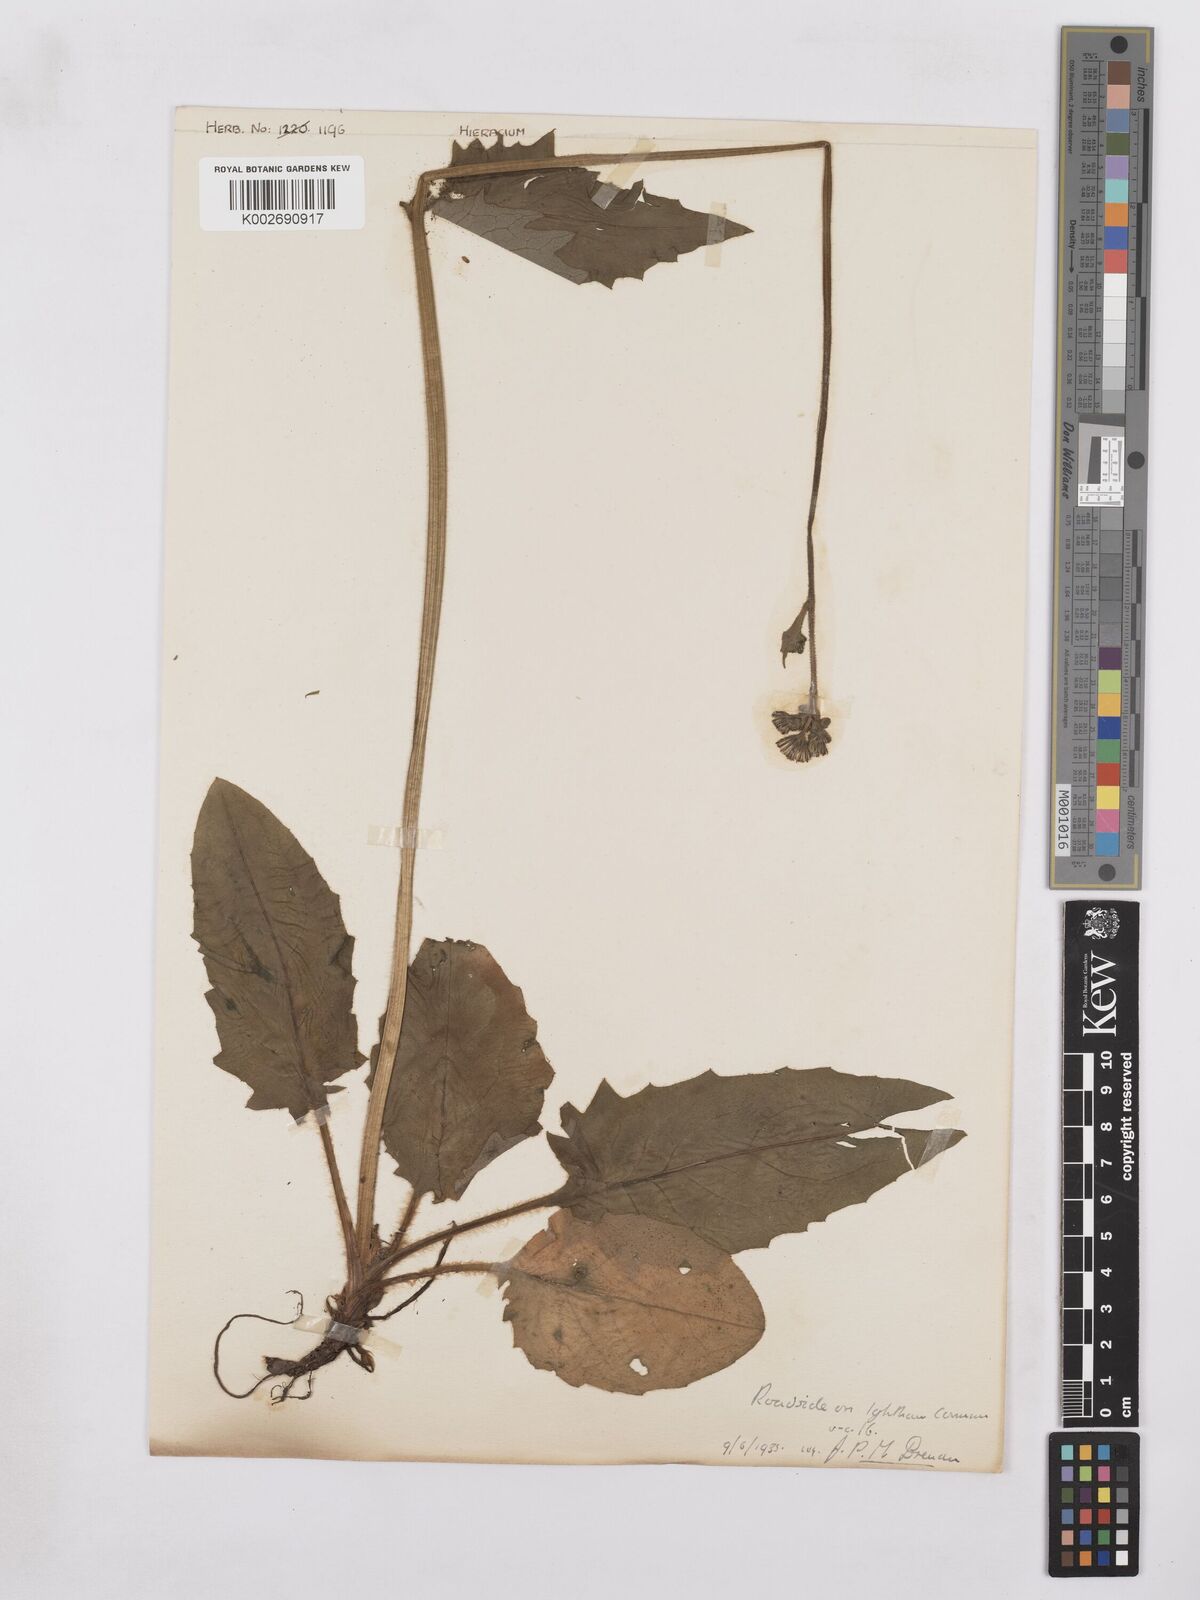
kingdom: Plantae
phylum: Tracheophyta
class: Magnoliopsida
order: Asterales
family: Asteraceae
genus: Hieracium
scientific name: Hieracium murorum
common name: Wall hawkweed
